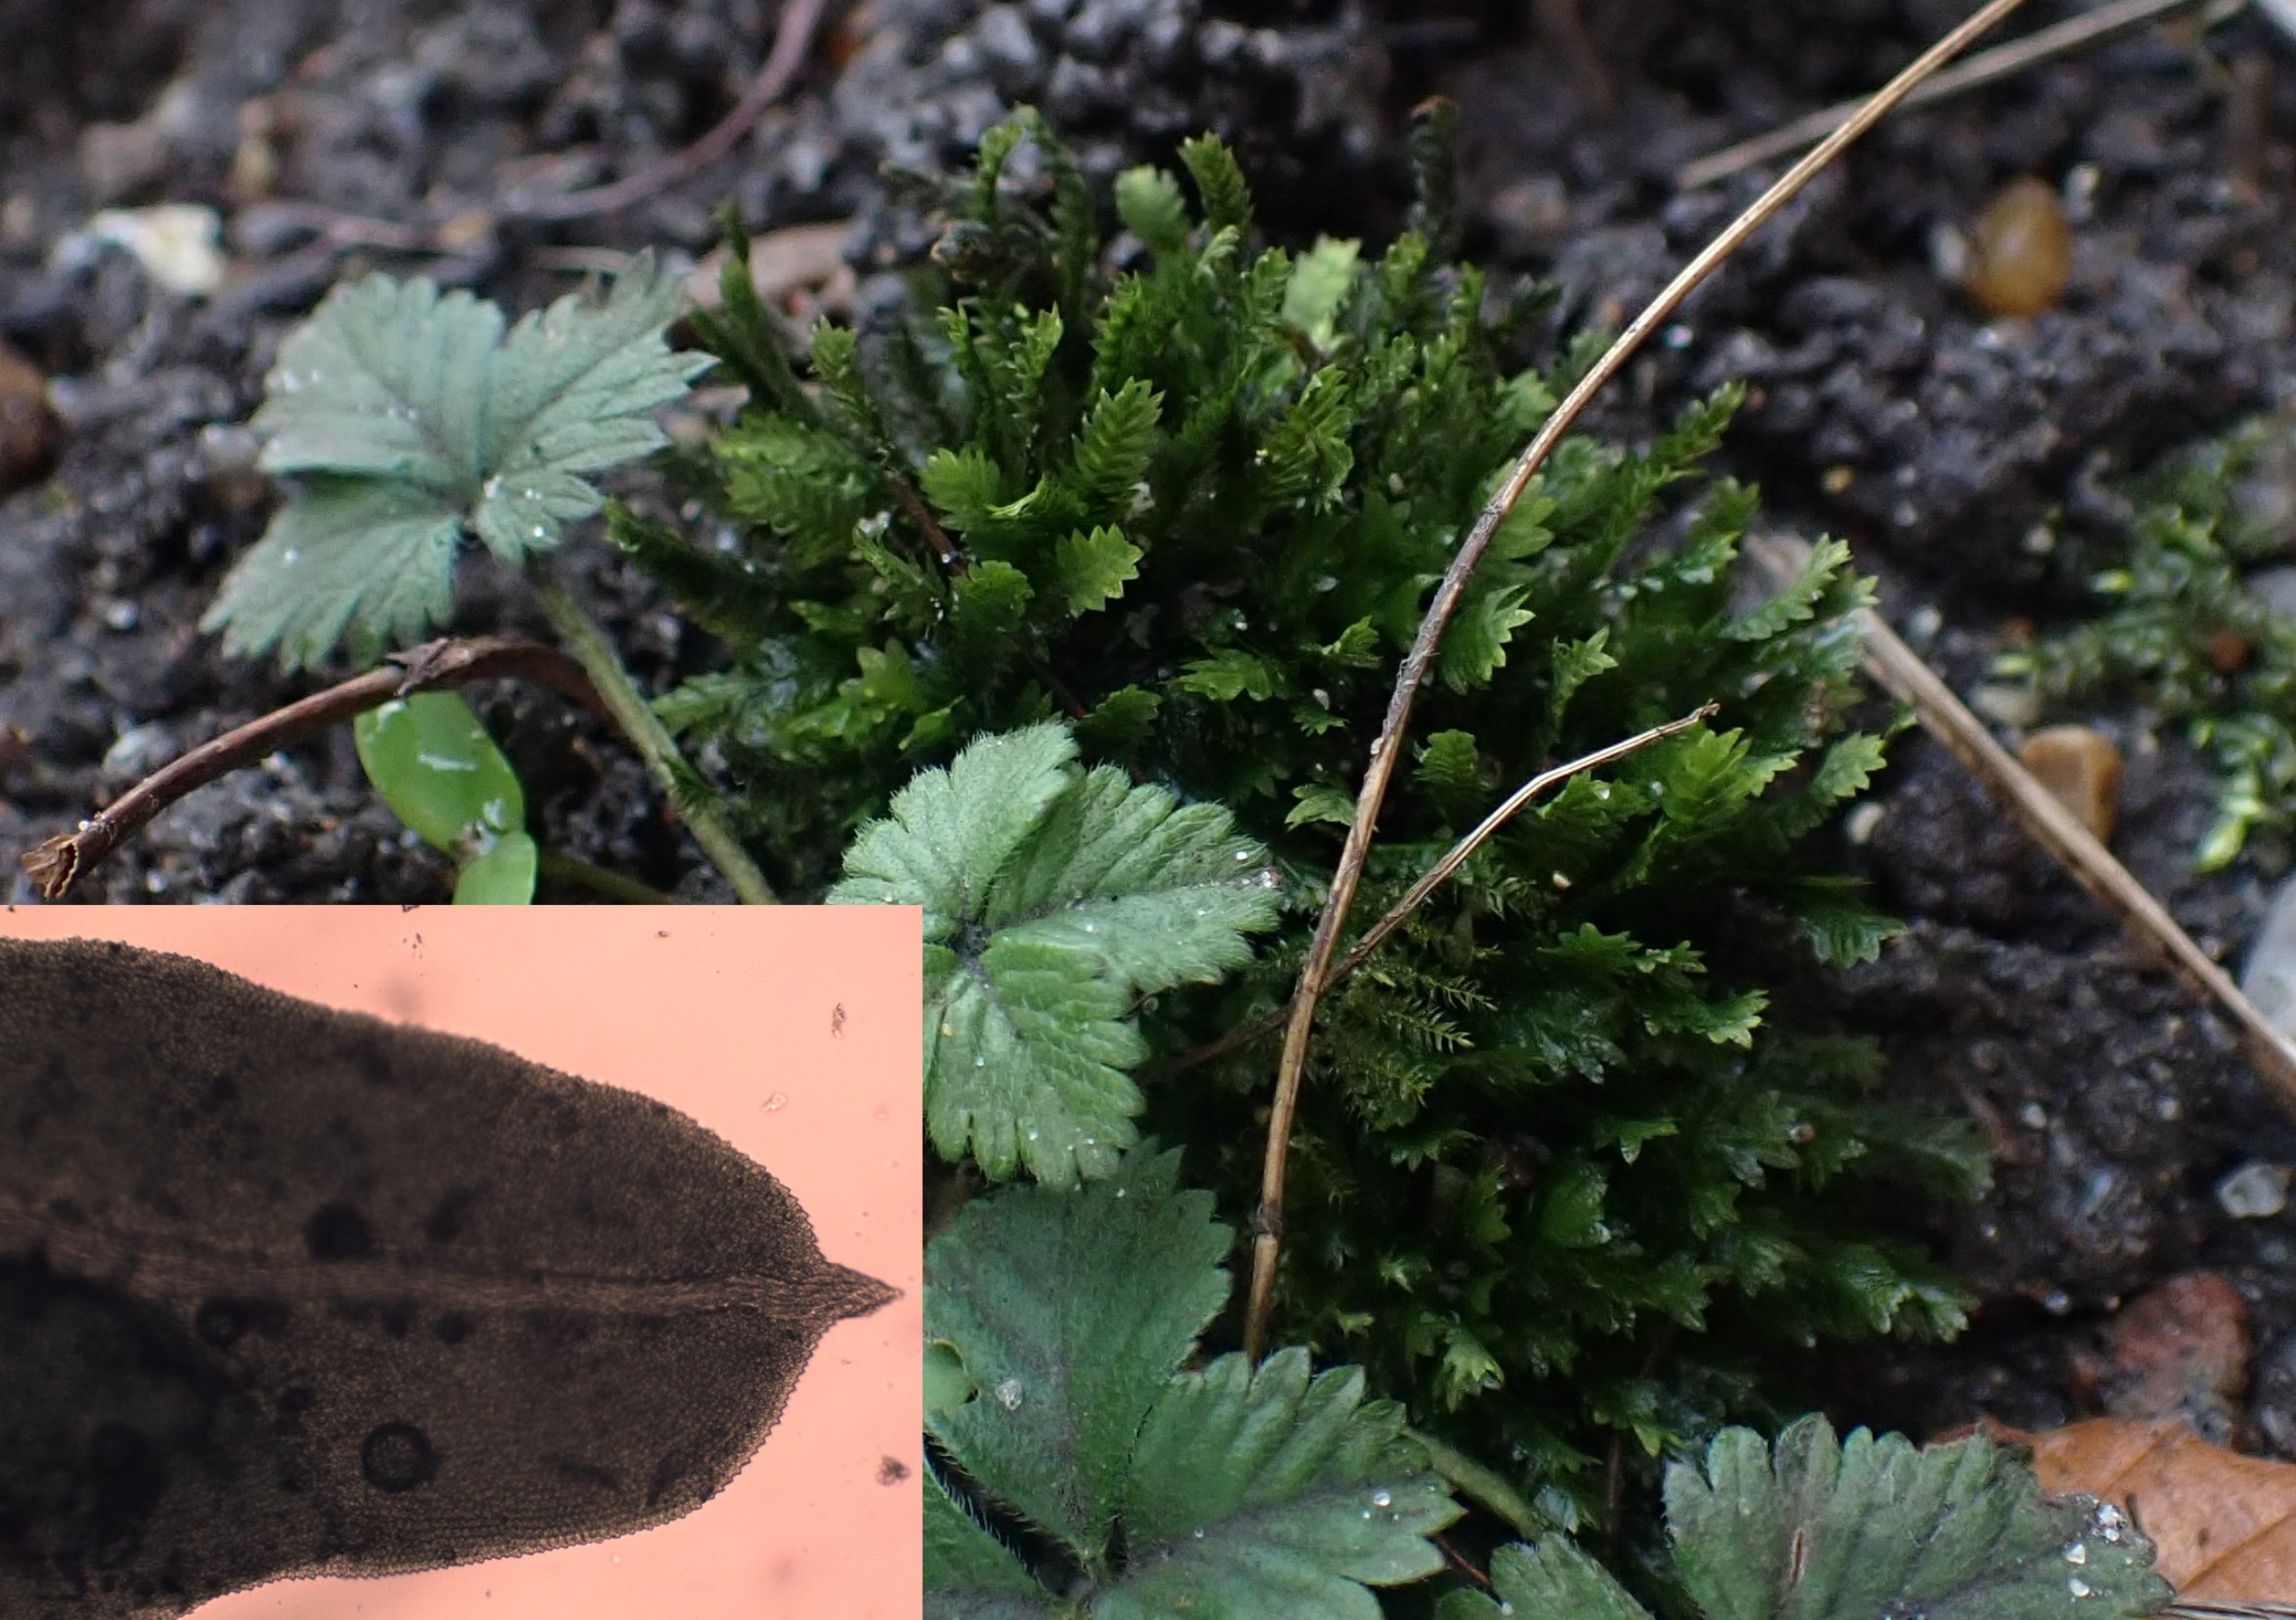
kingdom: Plantae
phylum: Bryophyta
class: Bryopsida
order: Dicranales
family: Fissidentaceae
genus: Fissidens
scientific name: Fissidens taxifolius
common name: Taksbladet rademos
